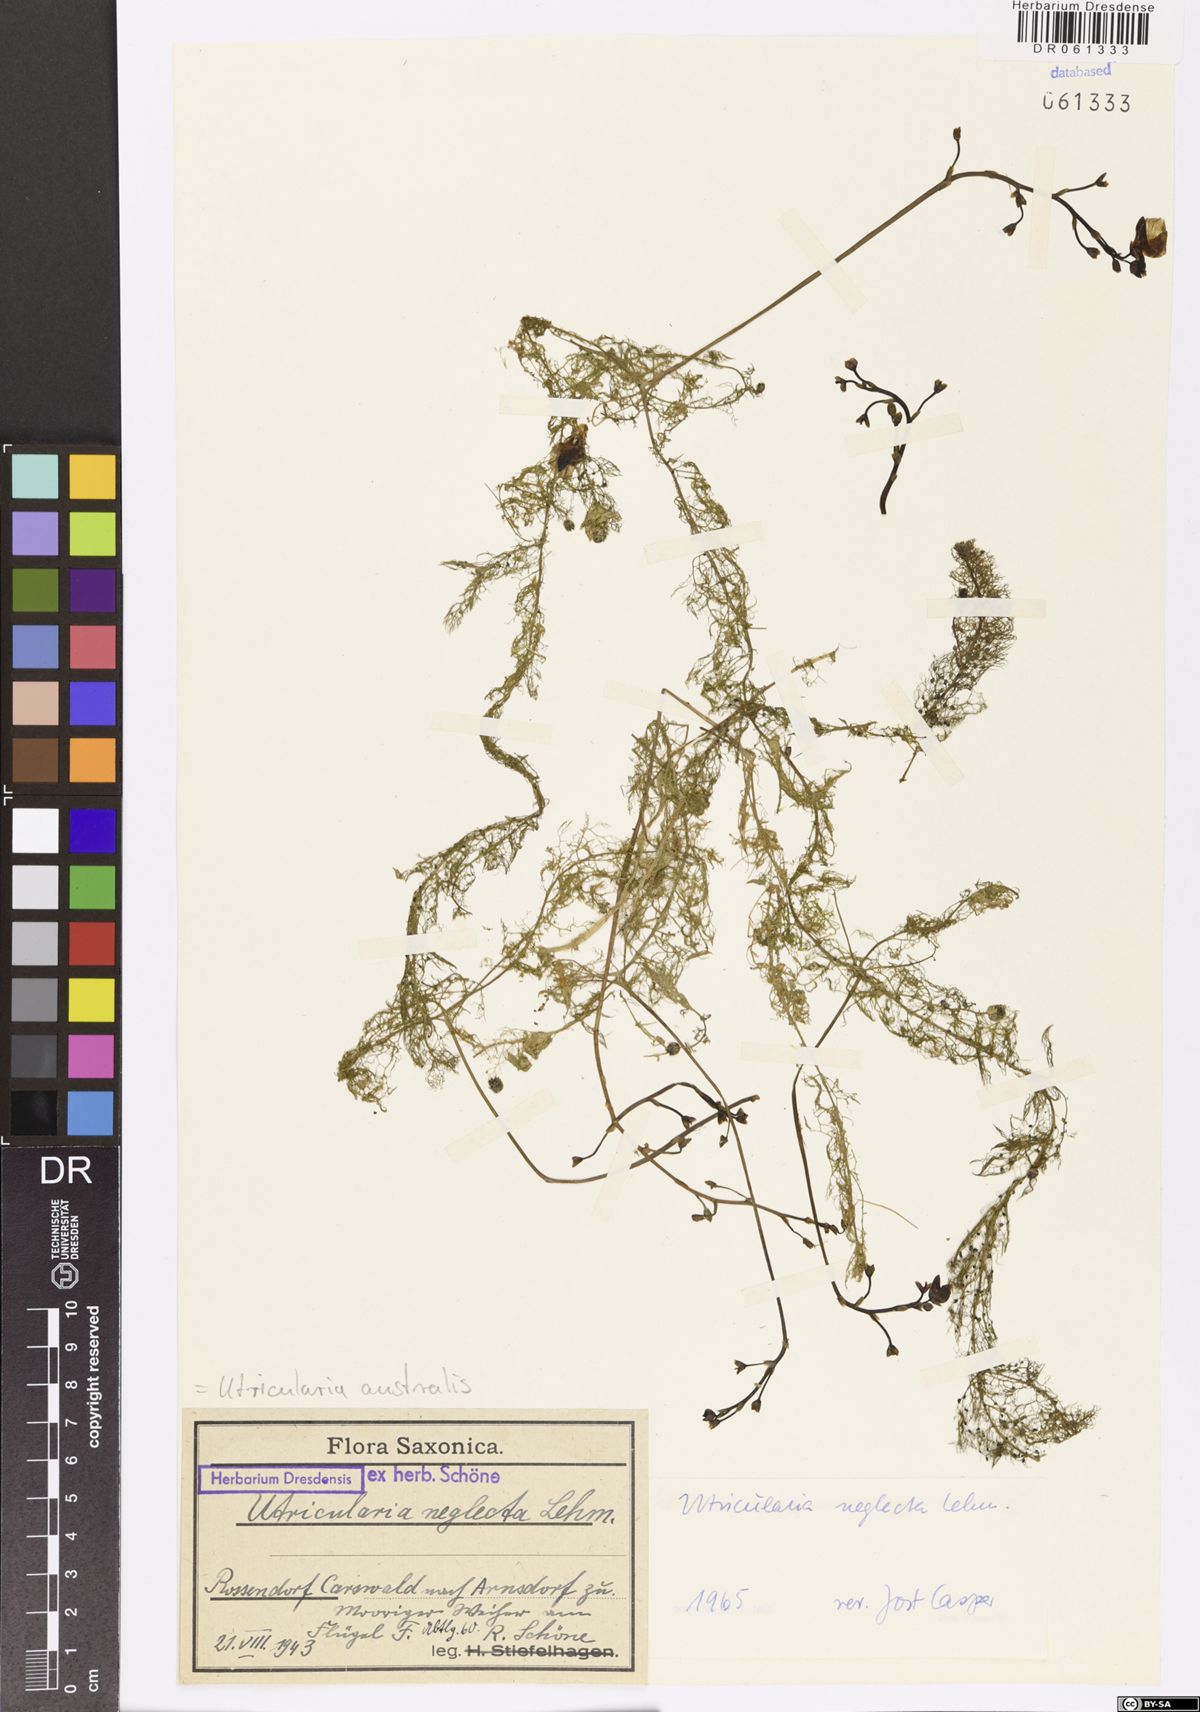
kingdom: Plantae
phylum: Tracheophyta
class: Magnoliopsida
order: Lamiales
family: Lentibulariaceae
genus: Utricularia
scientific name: Utricularia australis
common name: Bladderwort
